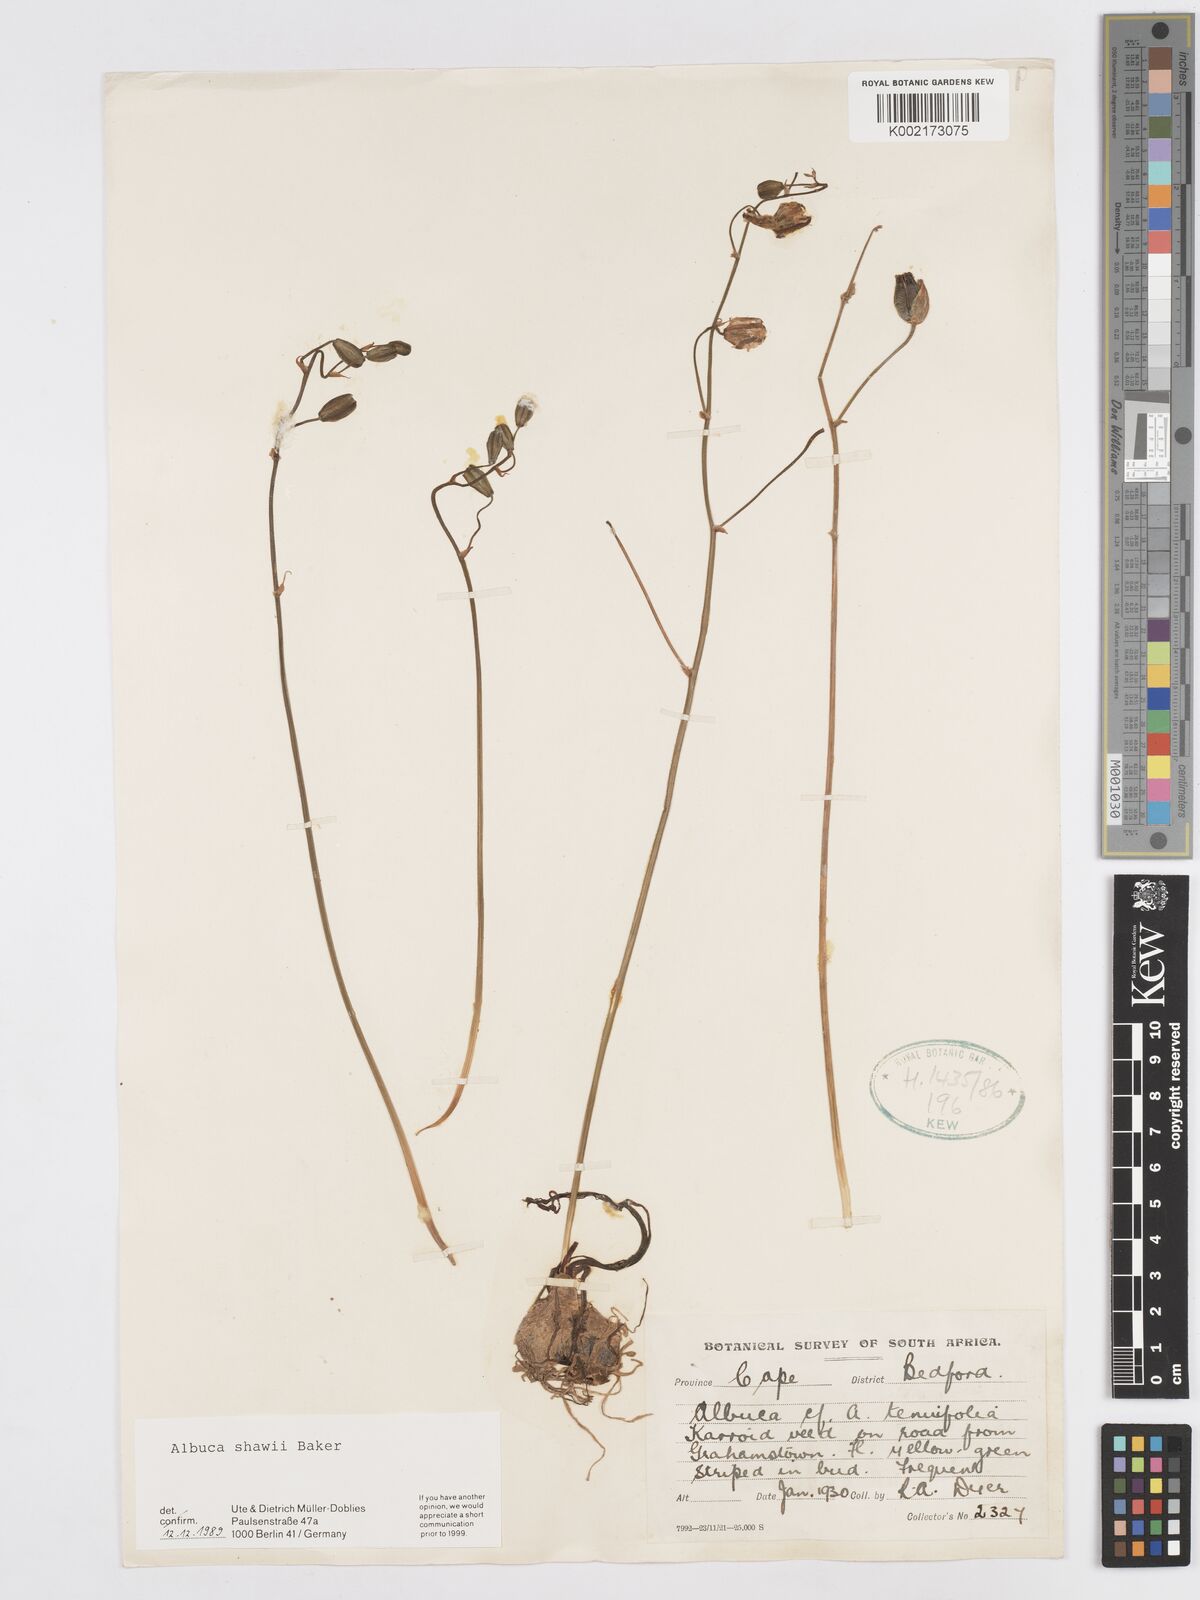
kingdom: Plantae
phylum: Tracheophyta
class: Liliopsida
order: Asparagales
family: Asparagaceae
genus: Albuca
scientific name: Albuca shawii
